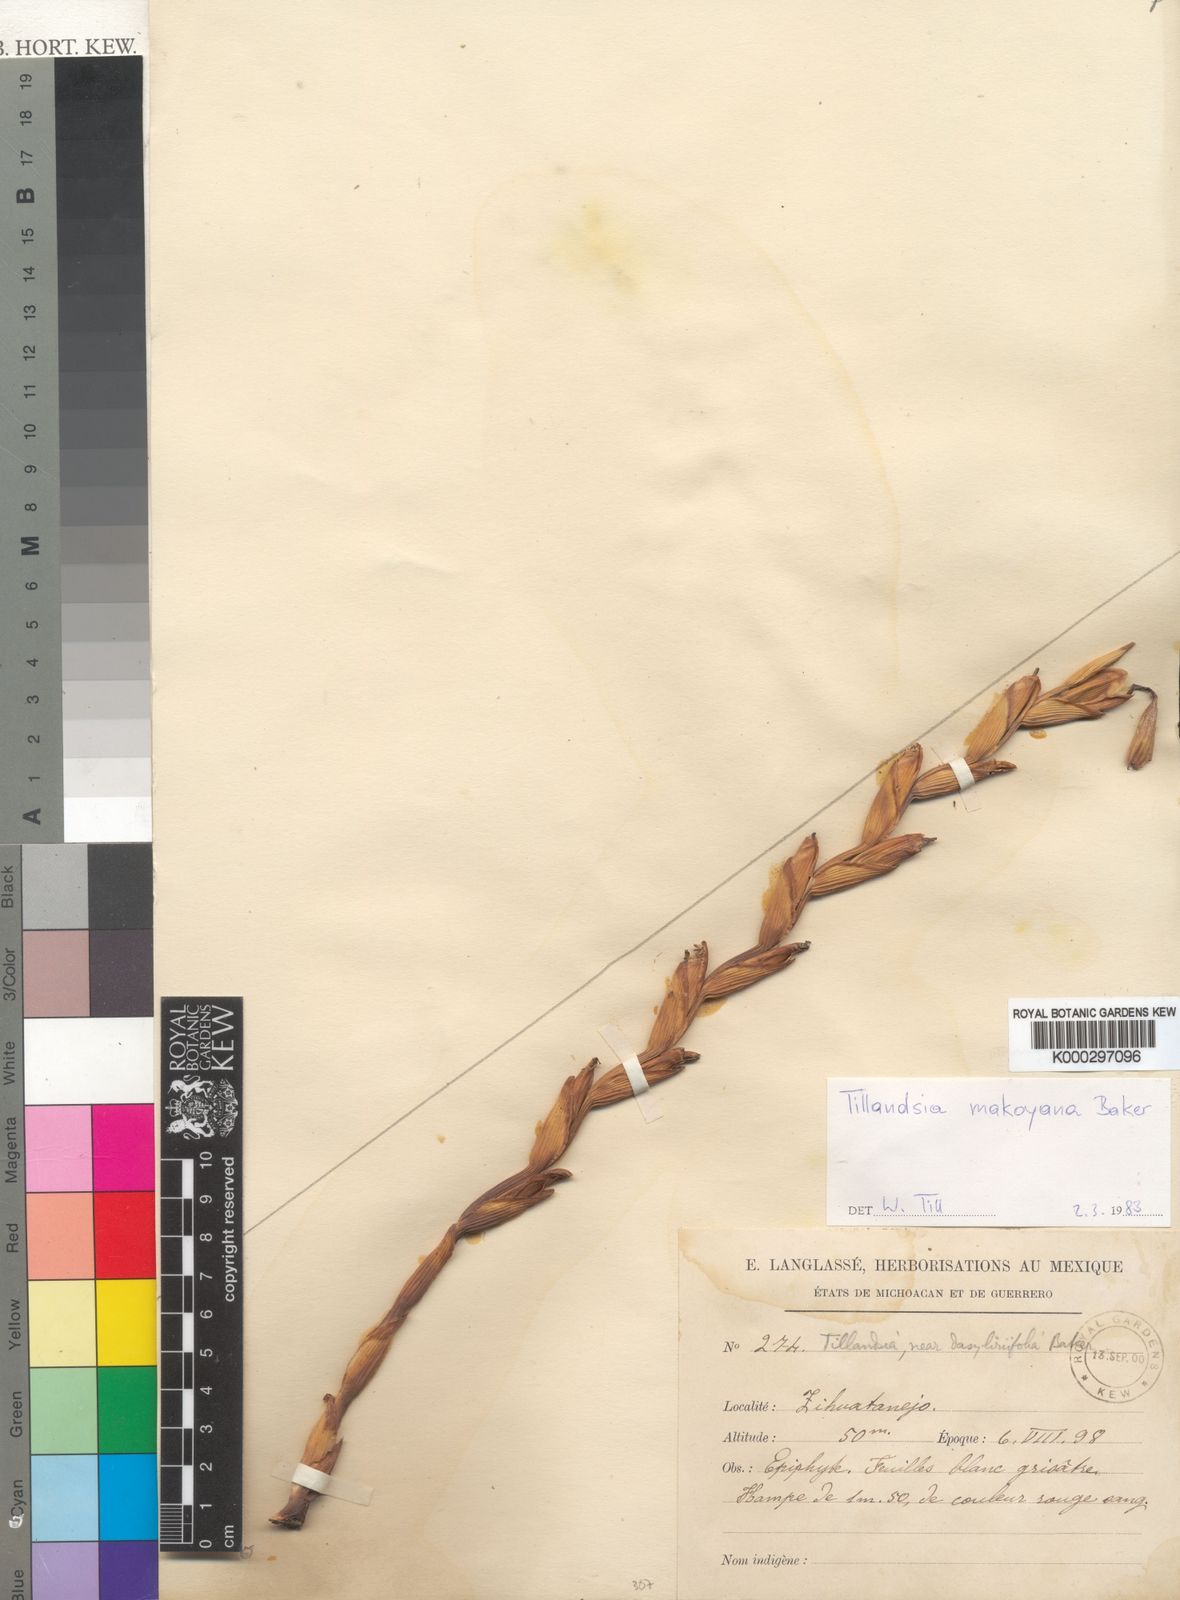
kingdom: Plantae
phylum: Tracheophyta
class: Liliopsida
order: Poales
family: Bromeliaceae
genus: Tillandsia
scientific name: Tillandsia huamelulaensis
